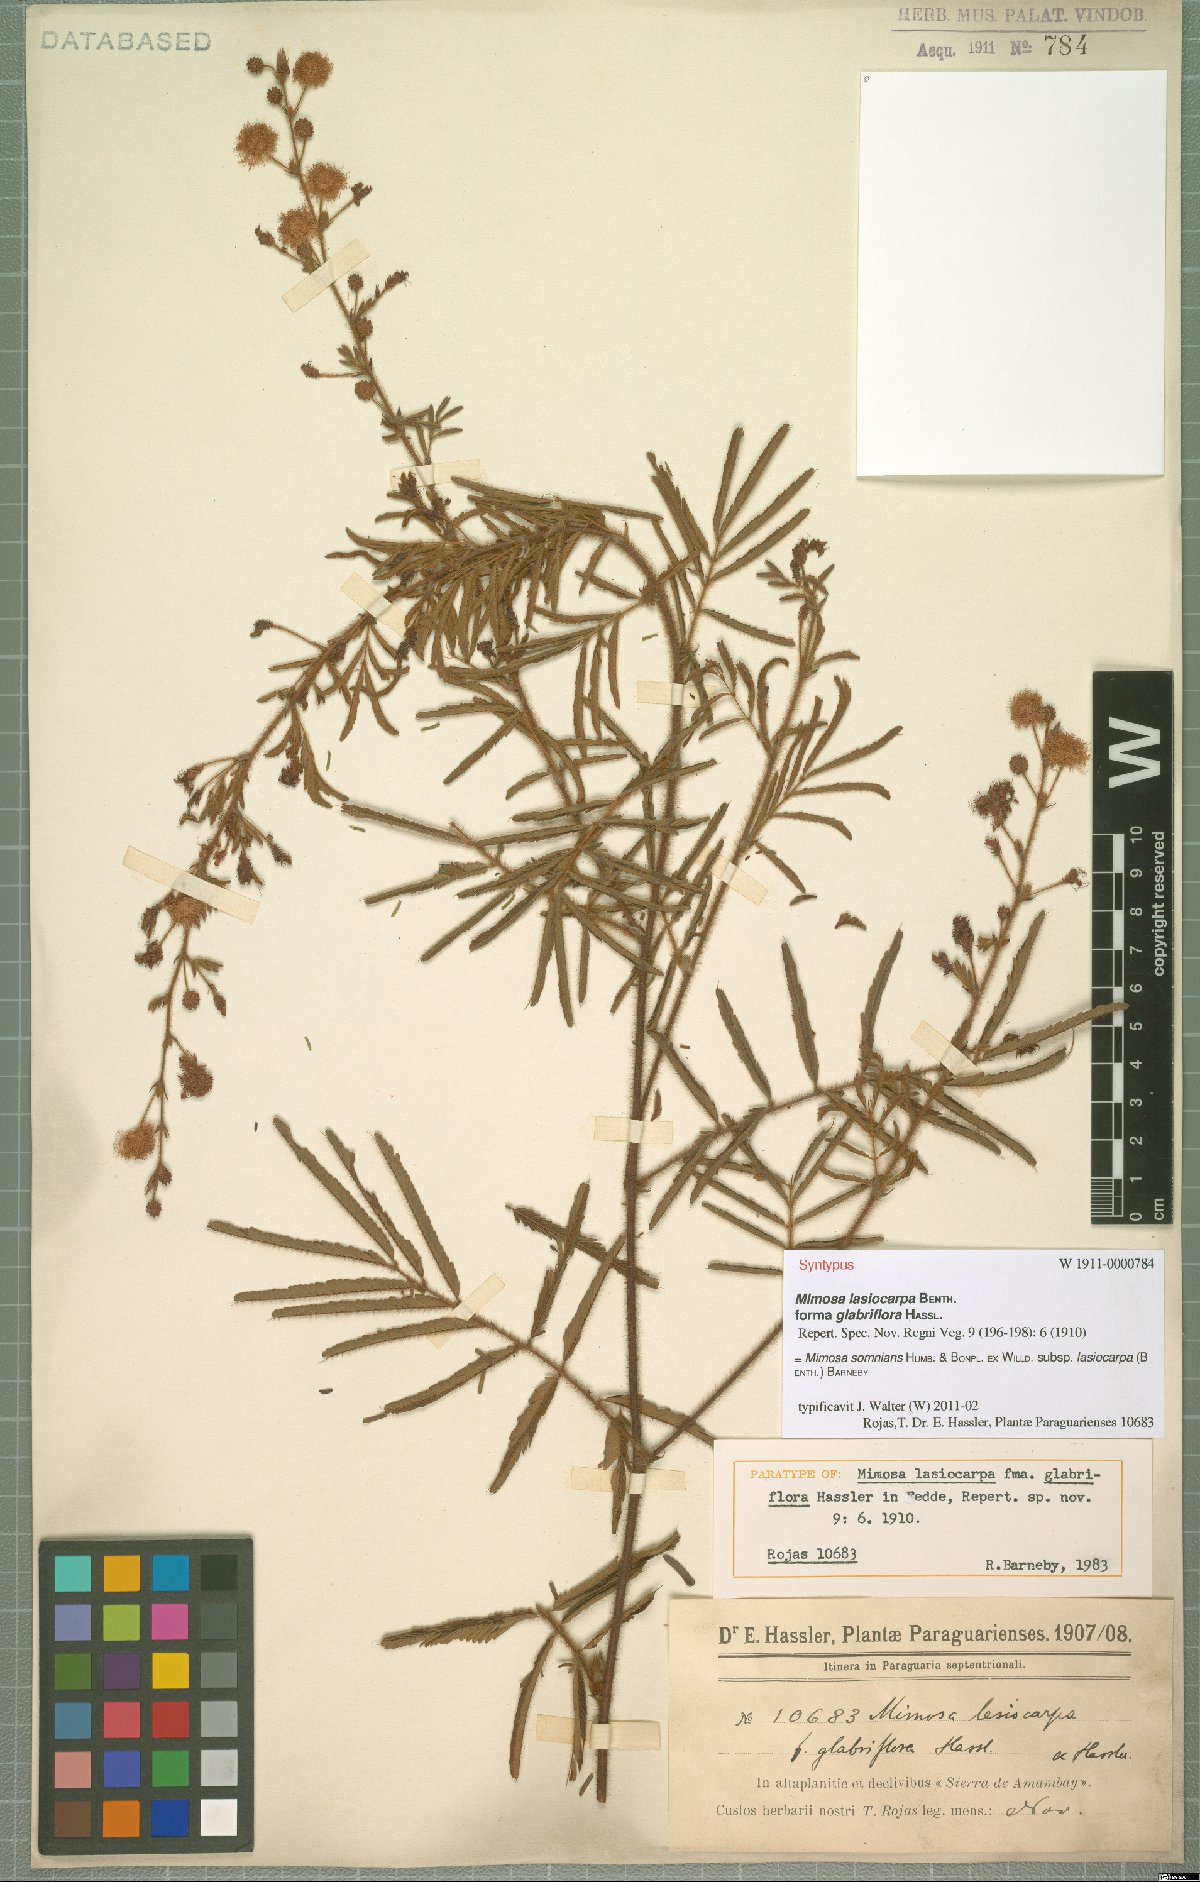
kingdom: Plantae
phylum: Tracheophyta
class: Magnoliopsida
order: Fabales
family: Fabaceae
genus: Mimosa
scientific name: Mimosa somnians
